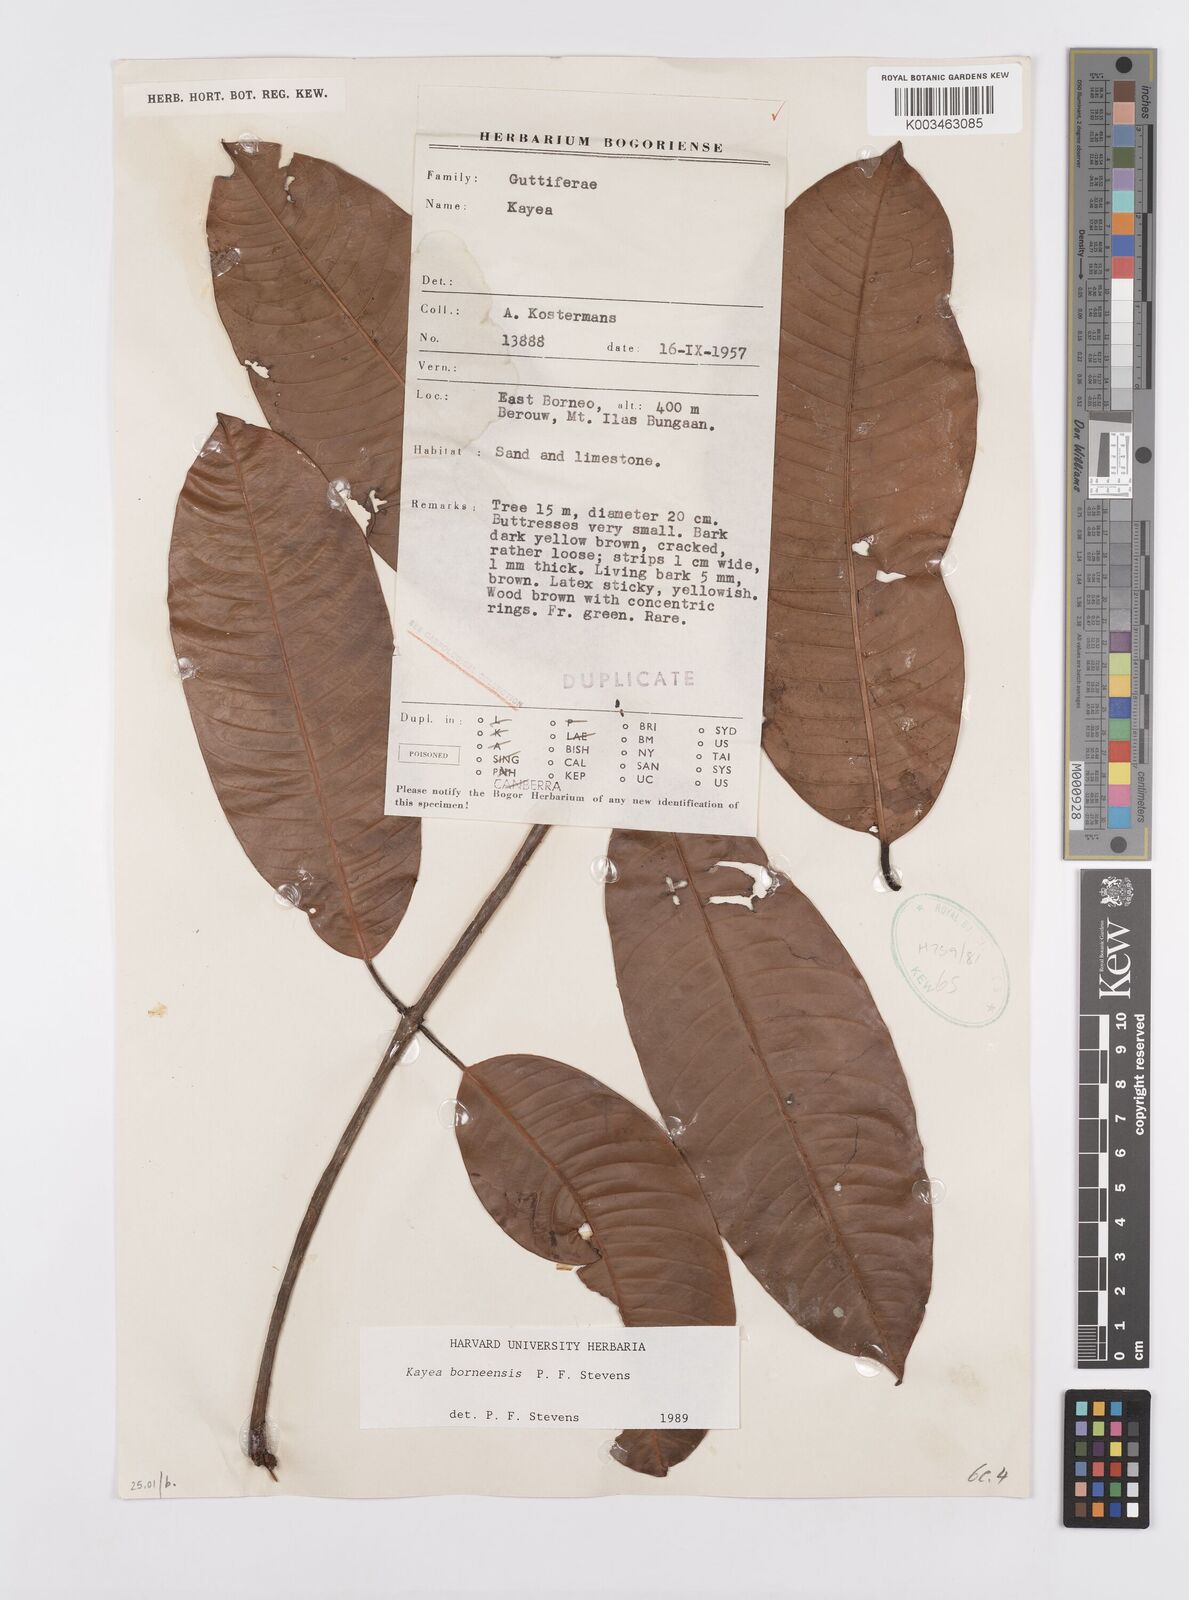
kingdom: Plantae
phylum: Tracheophyta
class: Magnoliopsida
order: Malpighiales
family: Calophyllaceae
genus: Kayea
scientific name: Kayea borneensis
